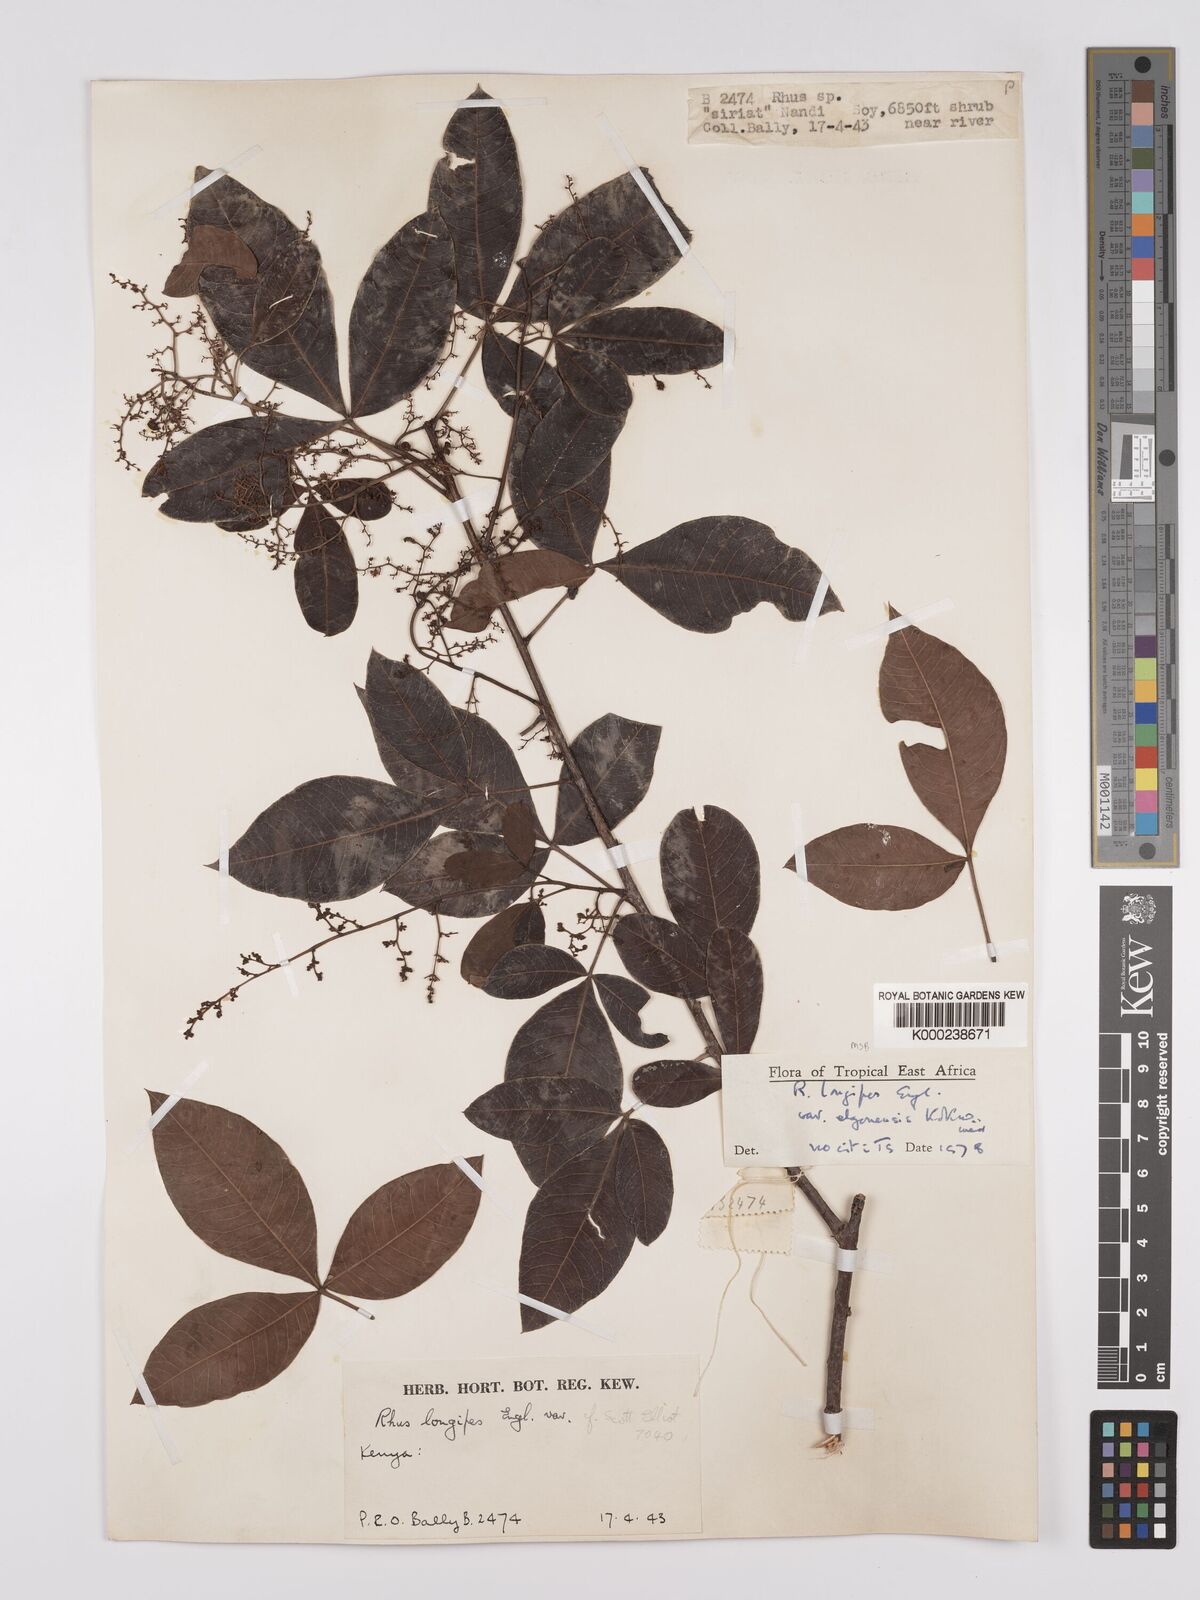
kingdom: Plantae
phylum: Tracheophyta
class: Magnoliopsida
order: Sapindales
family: Anacardiaceae
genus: Searsia
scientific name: Searsia longipes
